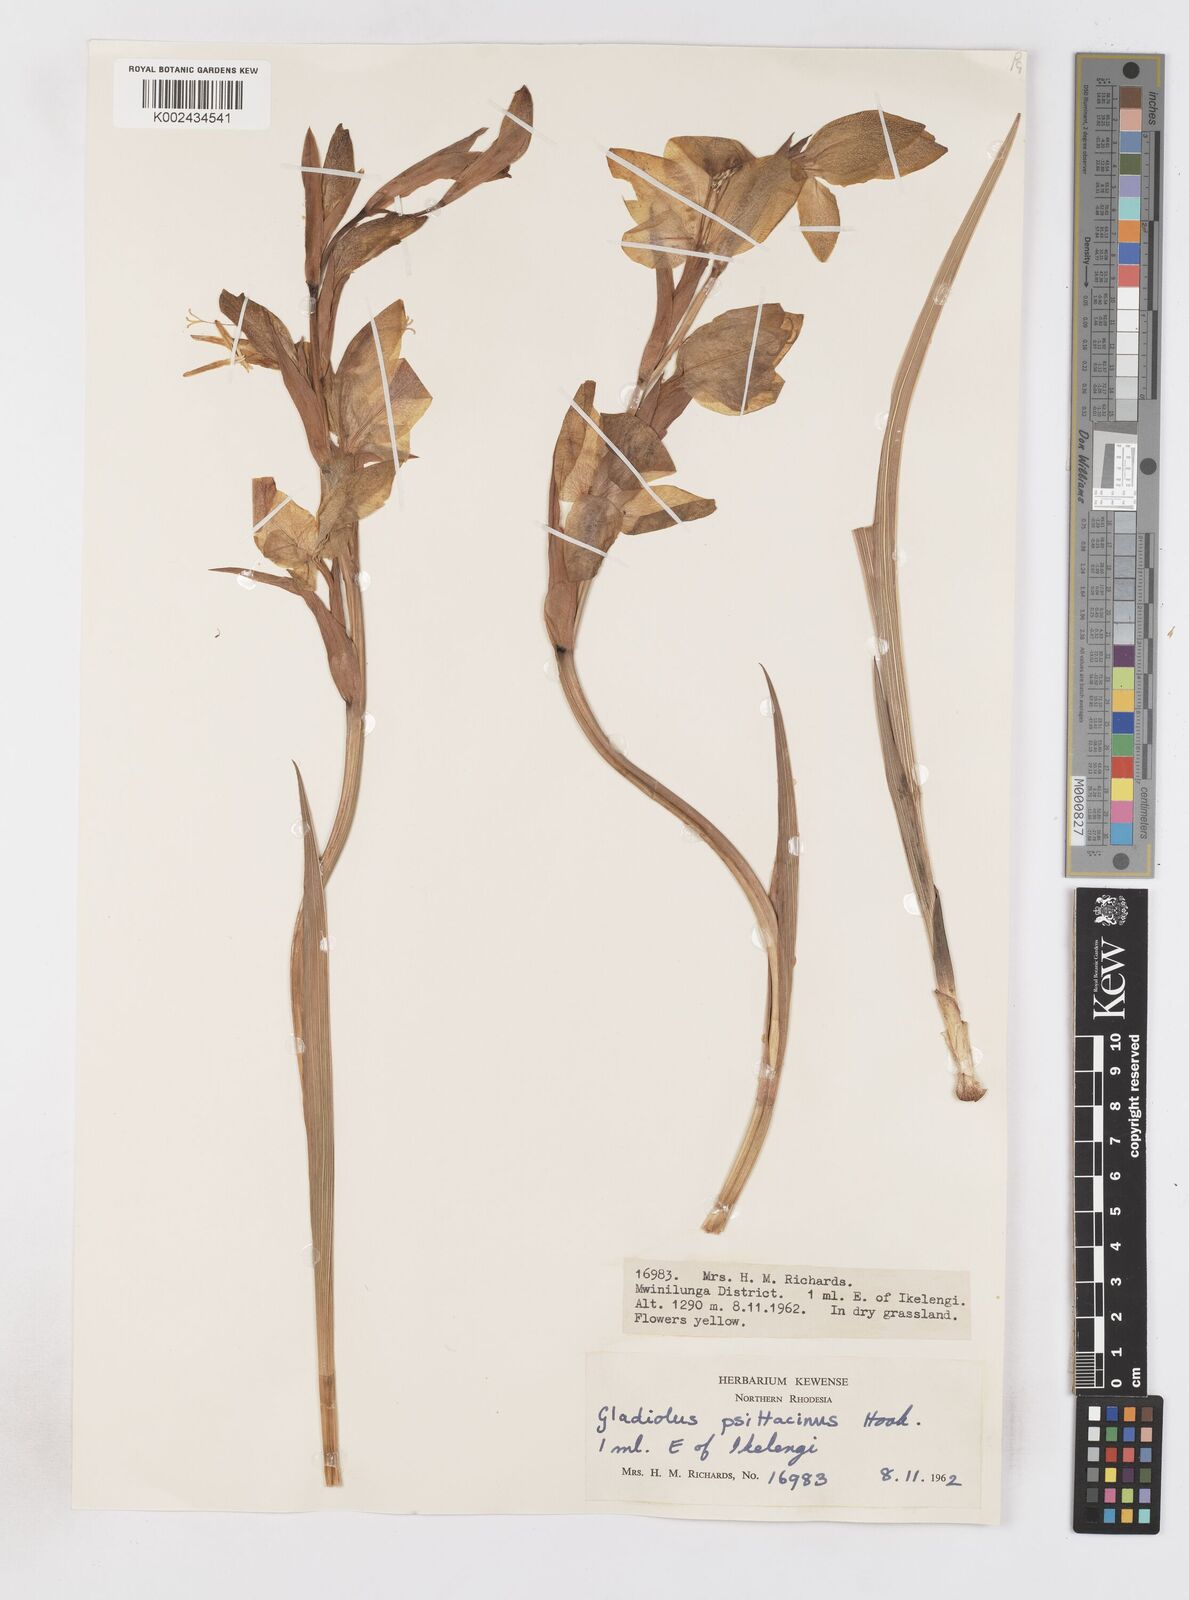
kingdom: Plantae
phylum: Tracheophyta
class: Liliopsida
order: Asparagales
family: Iridaceae
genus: Gladiolus
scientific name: Gladiolus dalenii
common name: Cornflag
